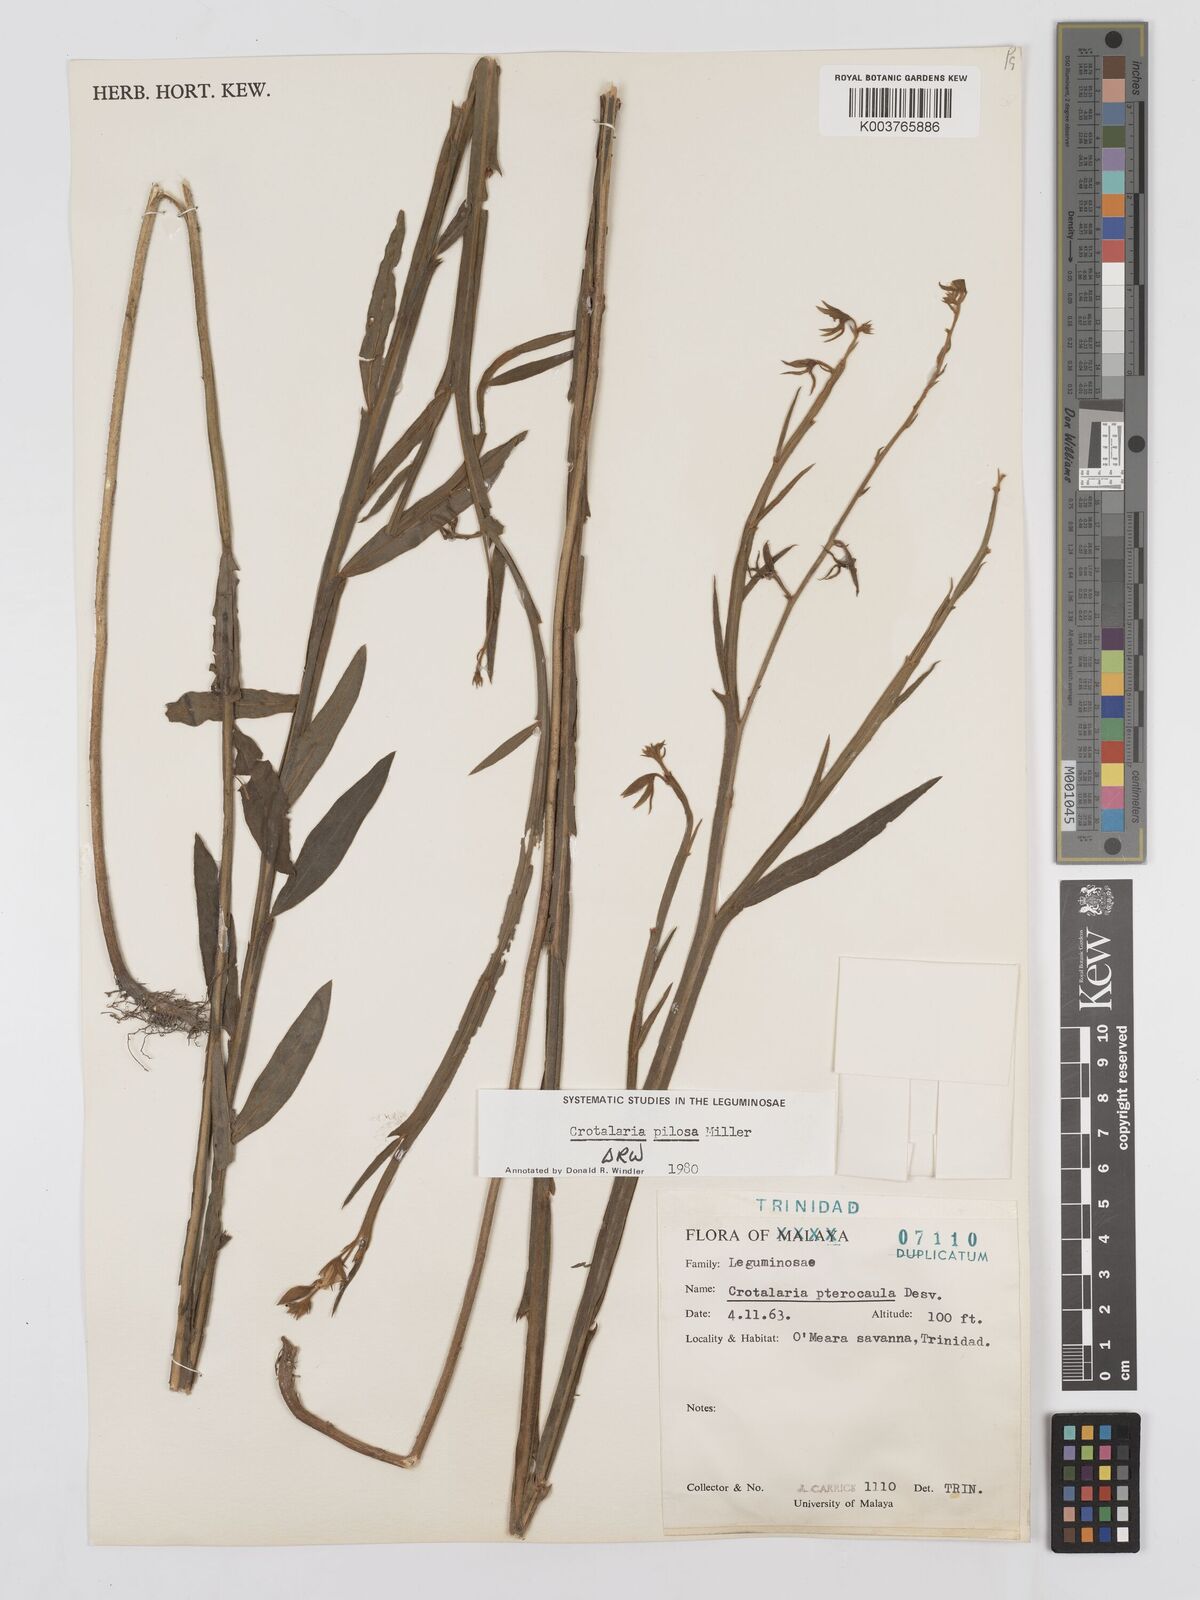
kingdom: Plantae
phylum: Tracheophyta
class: Magnoliopsida
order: Fabales
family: Fabaceae
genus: Crotalaria
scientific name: Crotalaria pilosa
